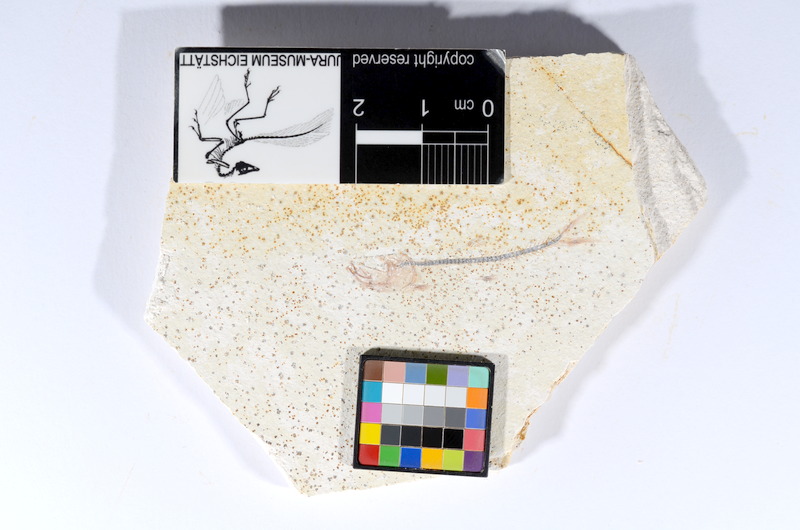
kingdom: Animalia
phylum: Chordata
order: Salmoniformes
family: Orthogonikleithridae
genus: Orthogonikleithrus
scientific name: Orthogonikleithrus hoelli
